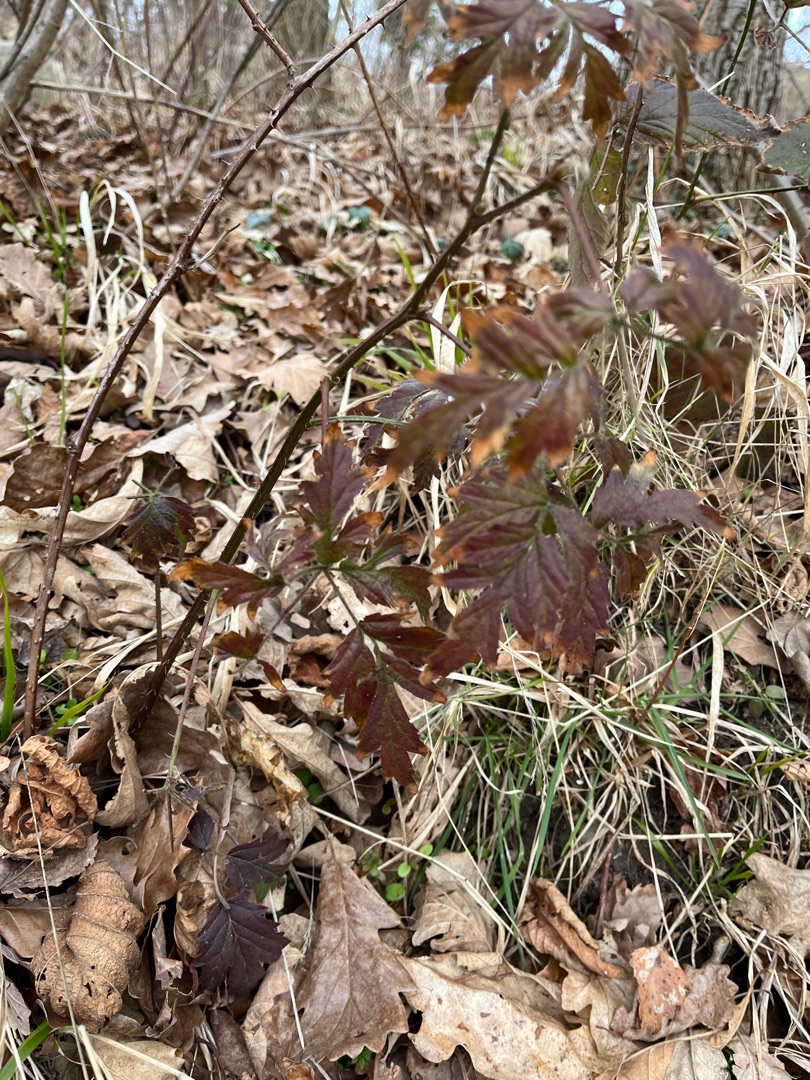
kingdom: Plantae
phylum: Tracheophyta
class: Magnoliopsida
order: Rosales
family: Rosaceae
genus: Rubus
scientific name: Rubus laciniatus
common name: Fliget brombær
